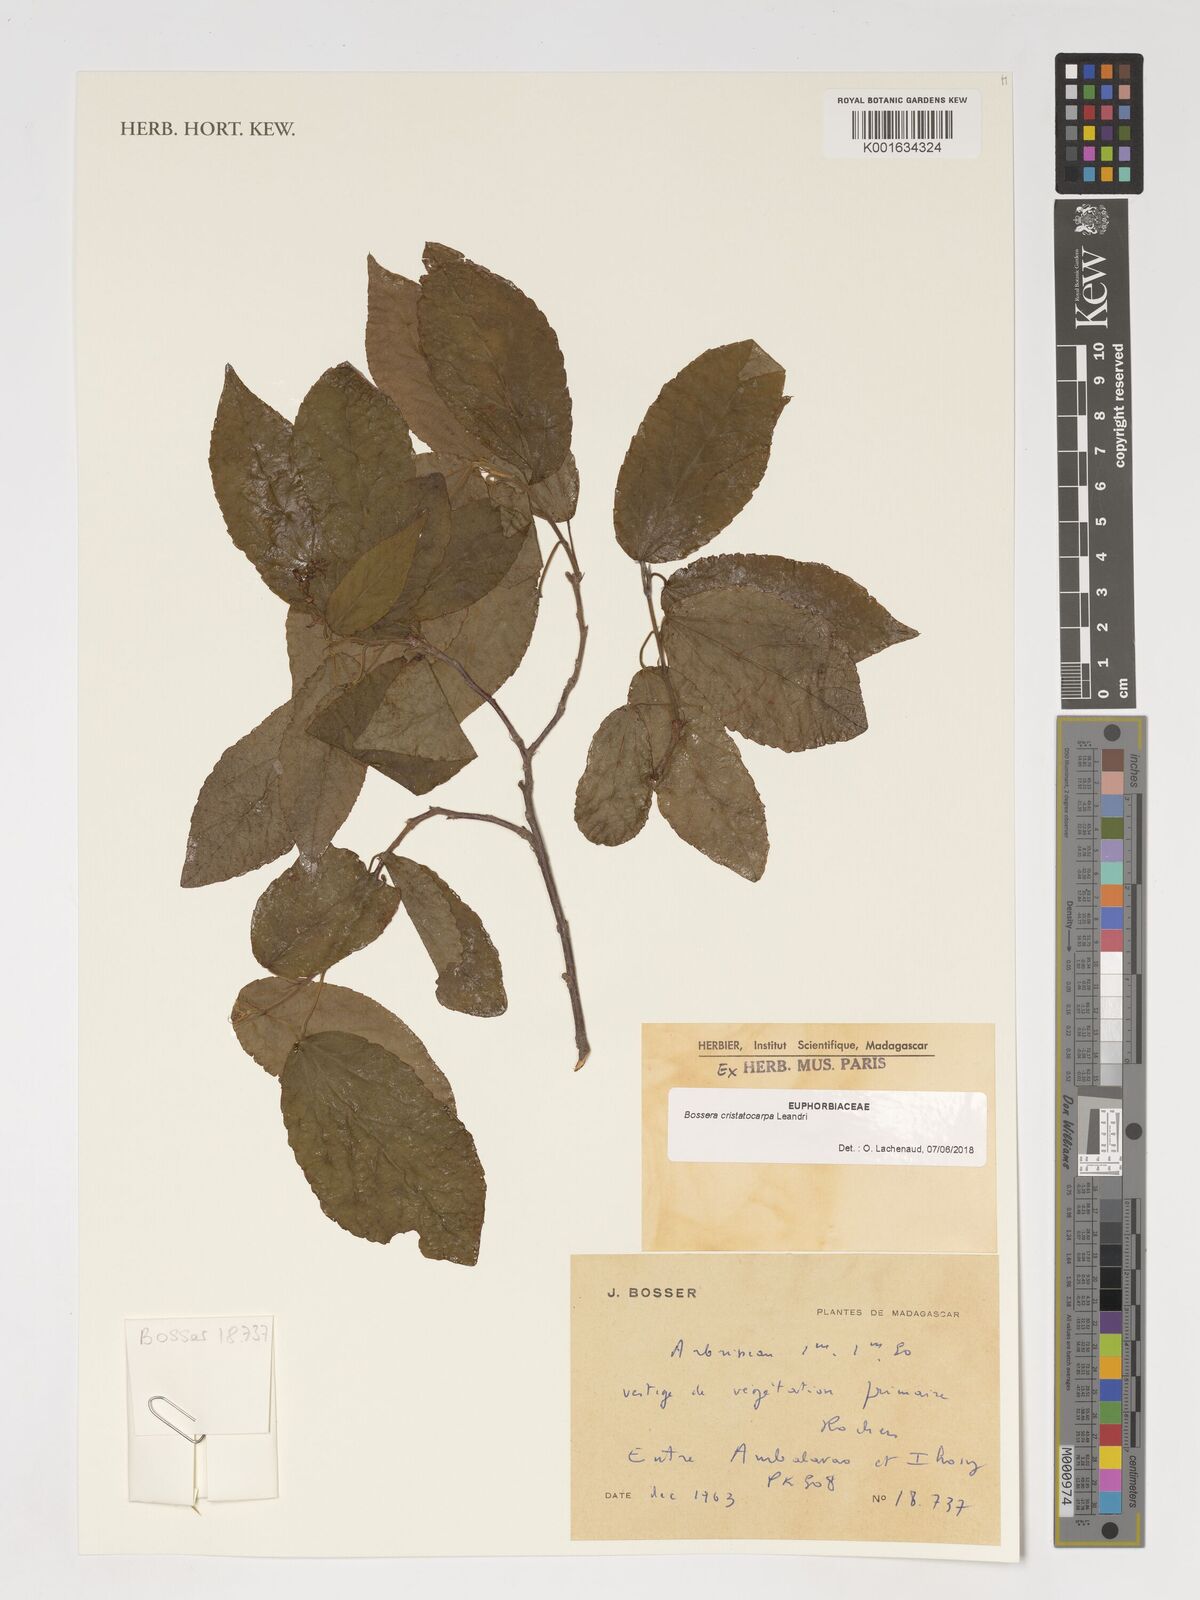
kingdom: Plantae
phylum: Tracheophyta
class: Magnoliopsida
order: Malpighiales
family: Euphorbiaceae
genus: Bossera
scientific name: Bossera cristatocarpa
